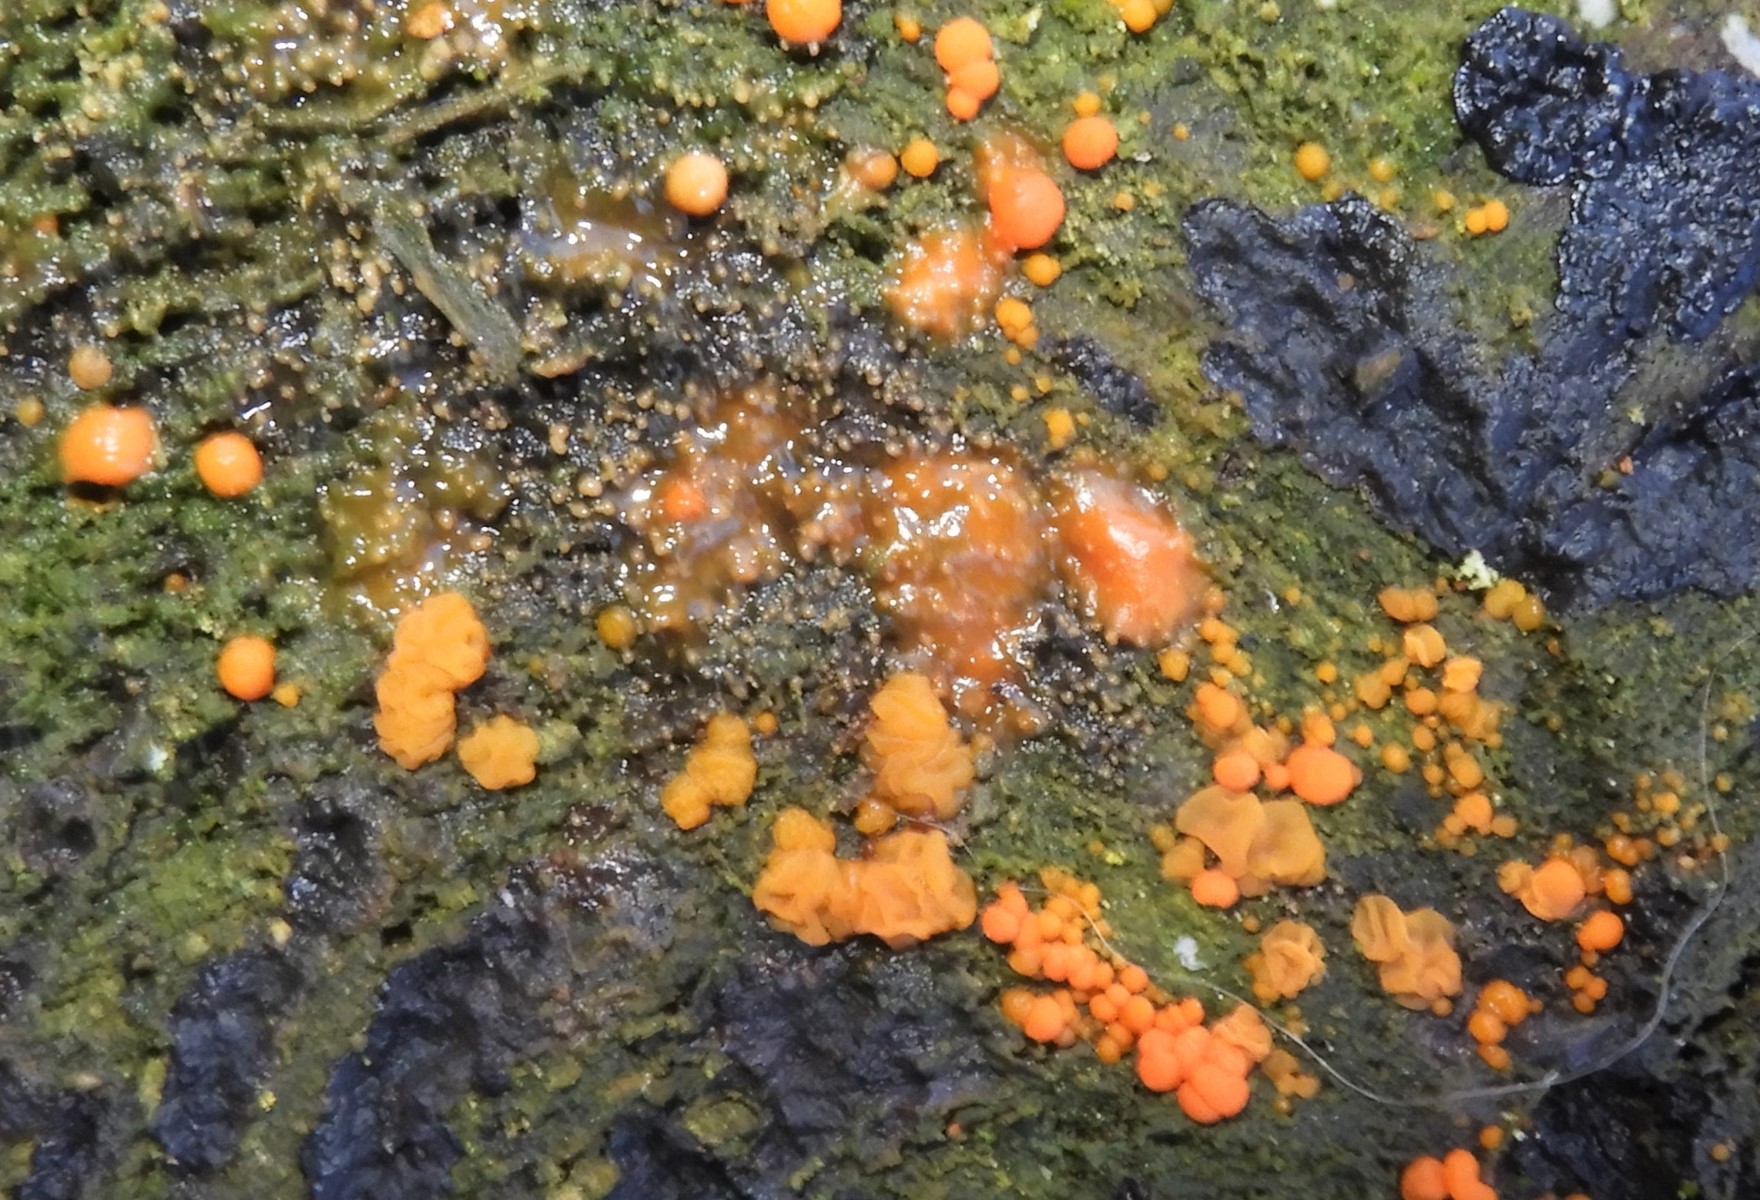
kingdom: Fungi
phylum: Basidiomycota
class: Dacrymycetes
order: Dacrymycetales
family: Dacrymycetaceae
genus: Dacrymyces
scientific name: Dacrymyces stillatus
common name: almindelig tåresvamp
